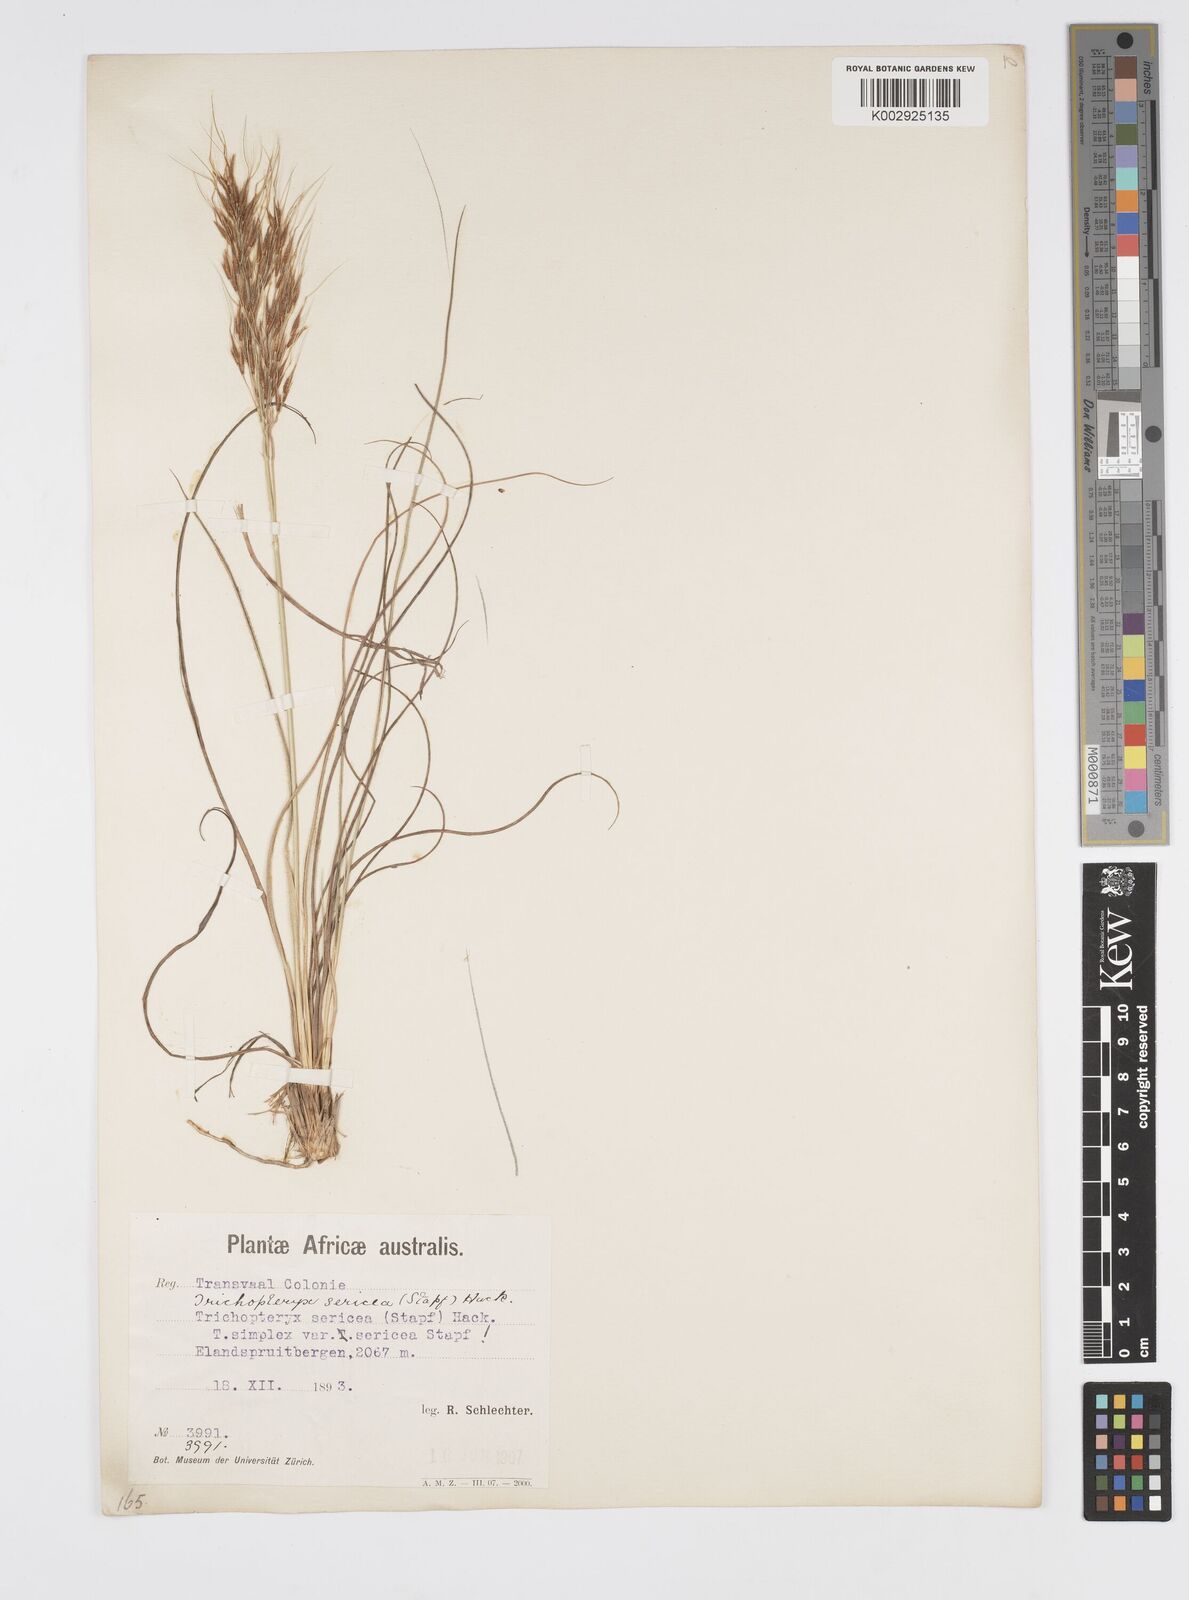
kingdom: Plantae
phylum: Tracheophyta
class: Liliopsida
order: Poales
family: Poaceae
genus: Loudetia
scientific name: Loudetia simplex
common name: Common russet grass
